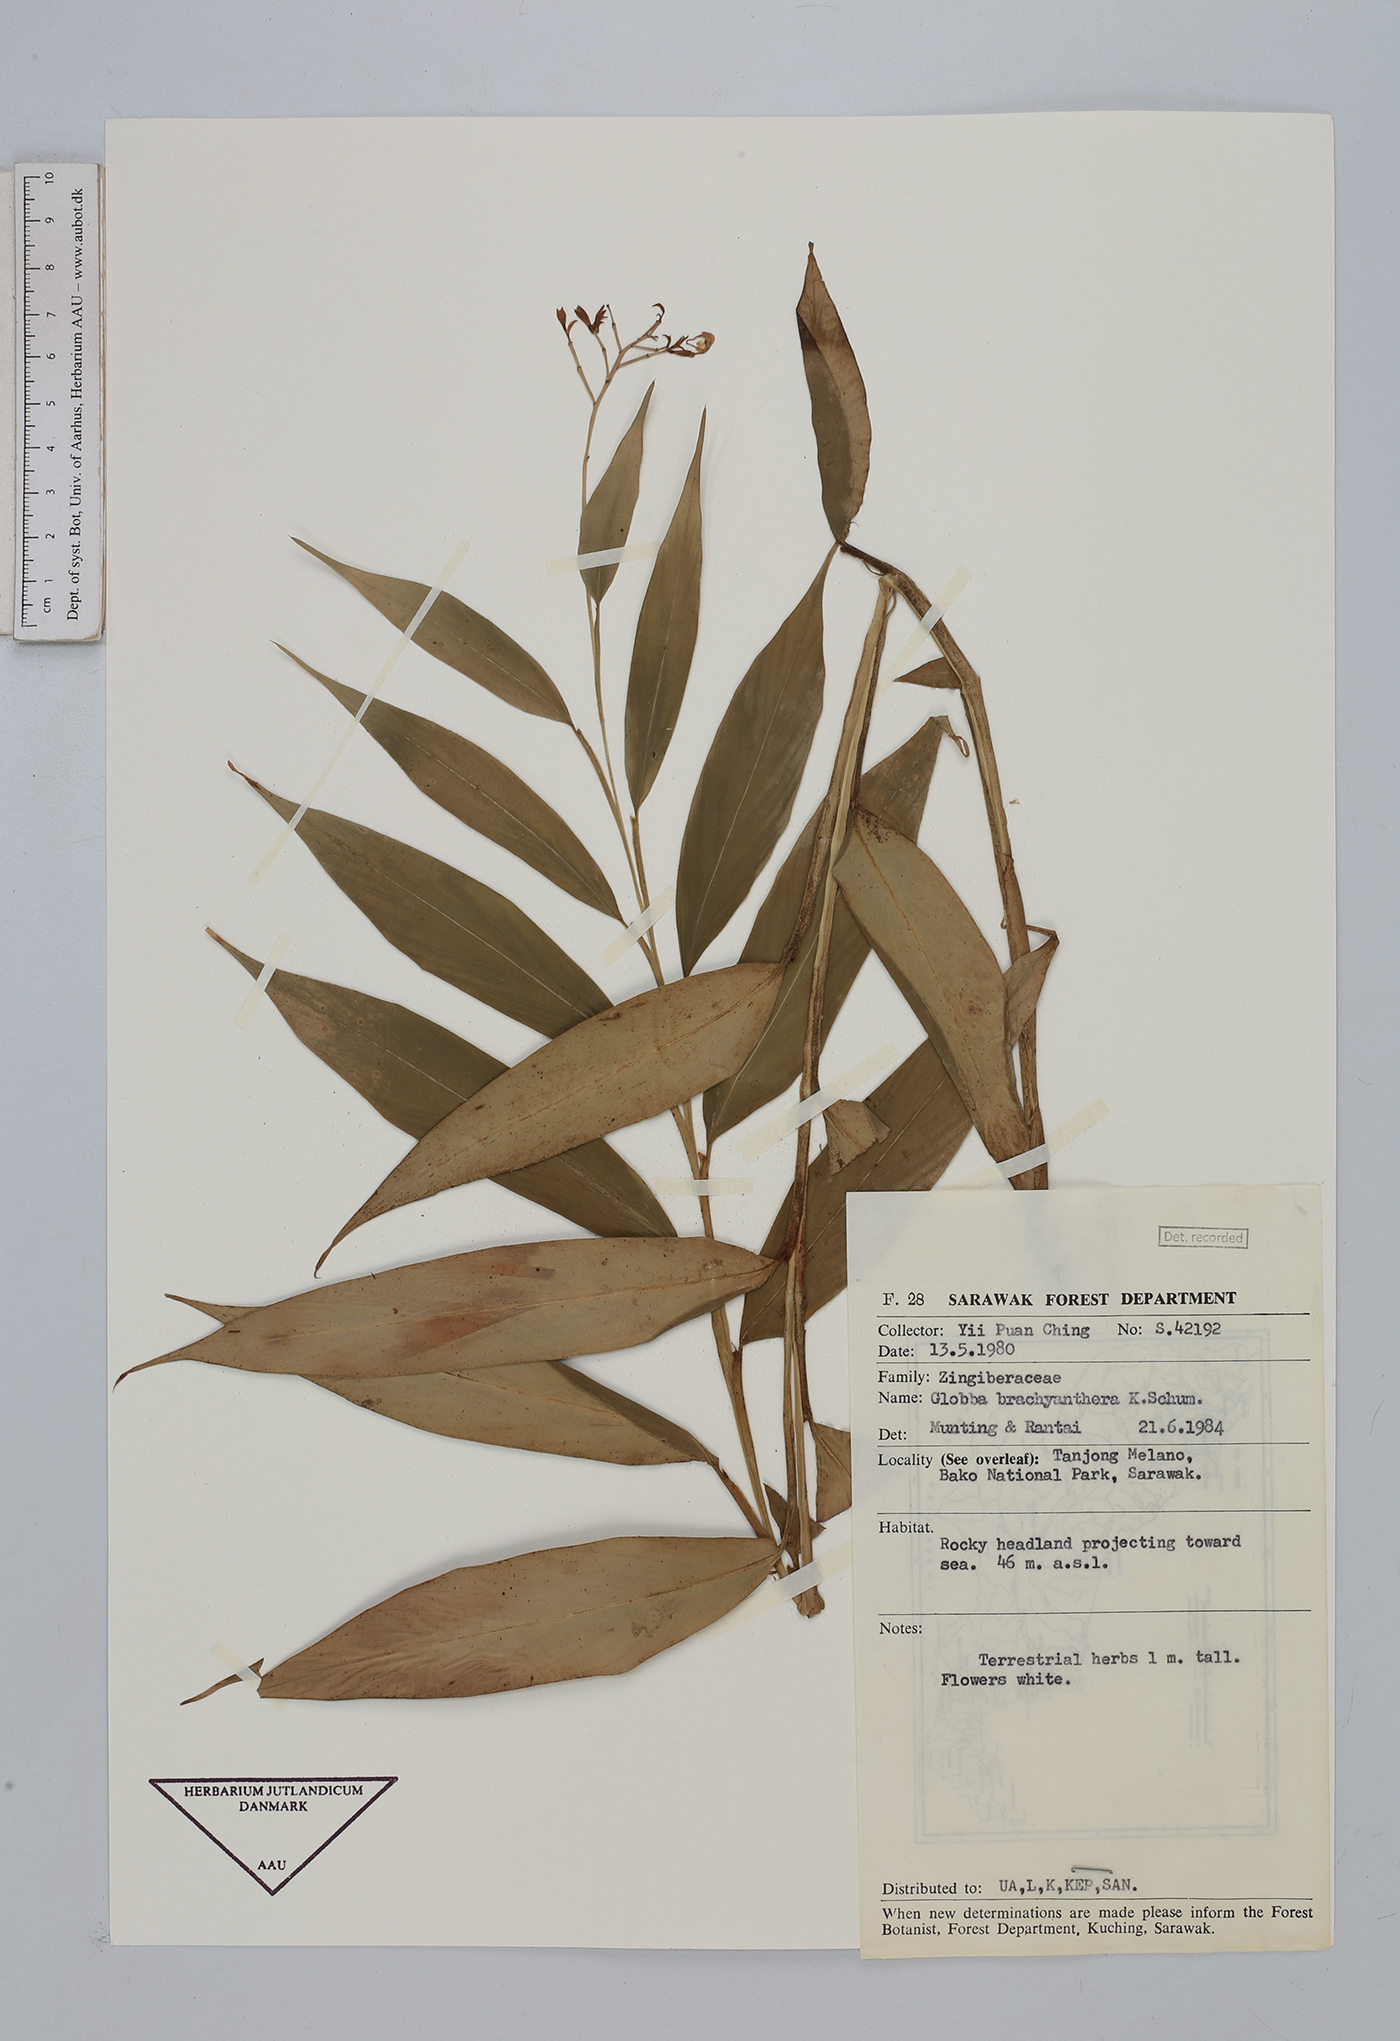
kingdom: Plantae
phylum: Tracheophyta
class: Liliopsida
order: Zingiberales
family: Zingiberaceae
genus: Globba
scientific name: Globba brachyanthera
